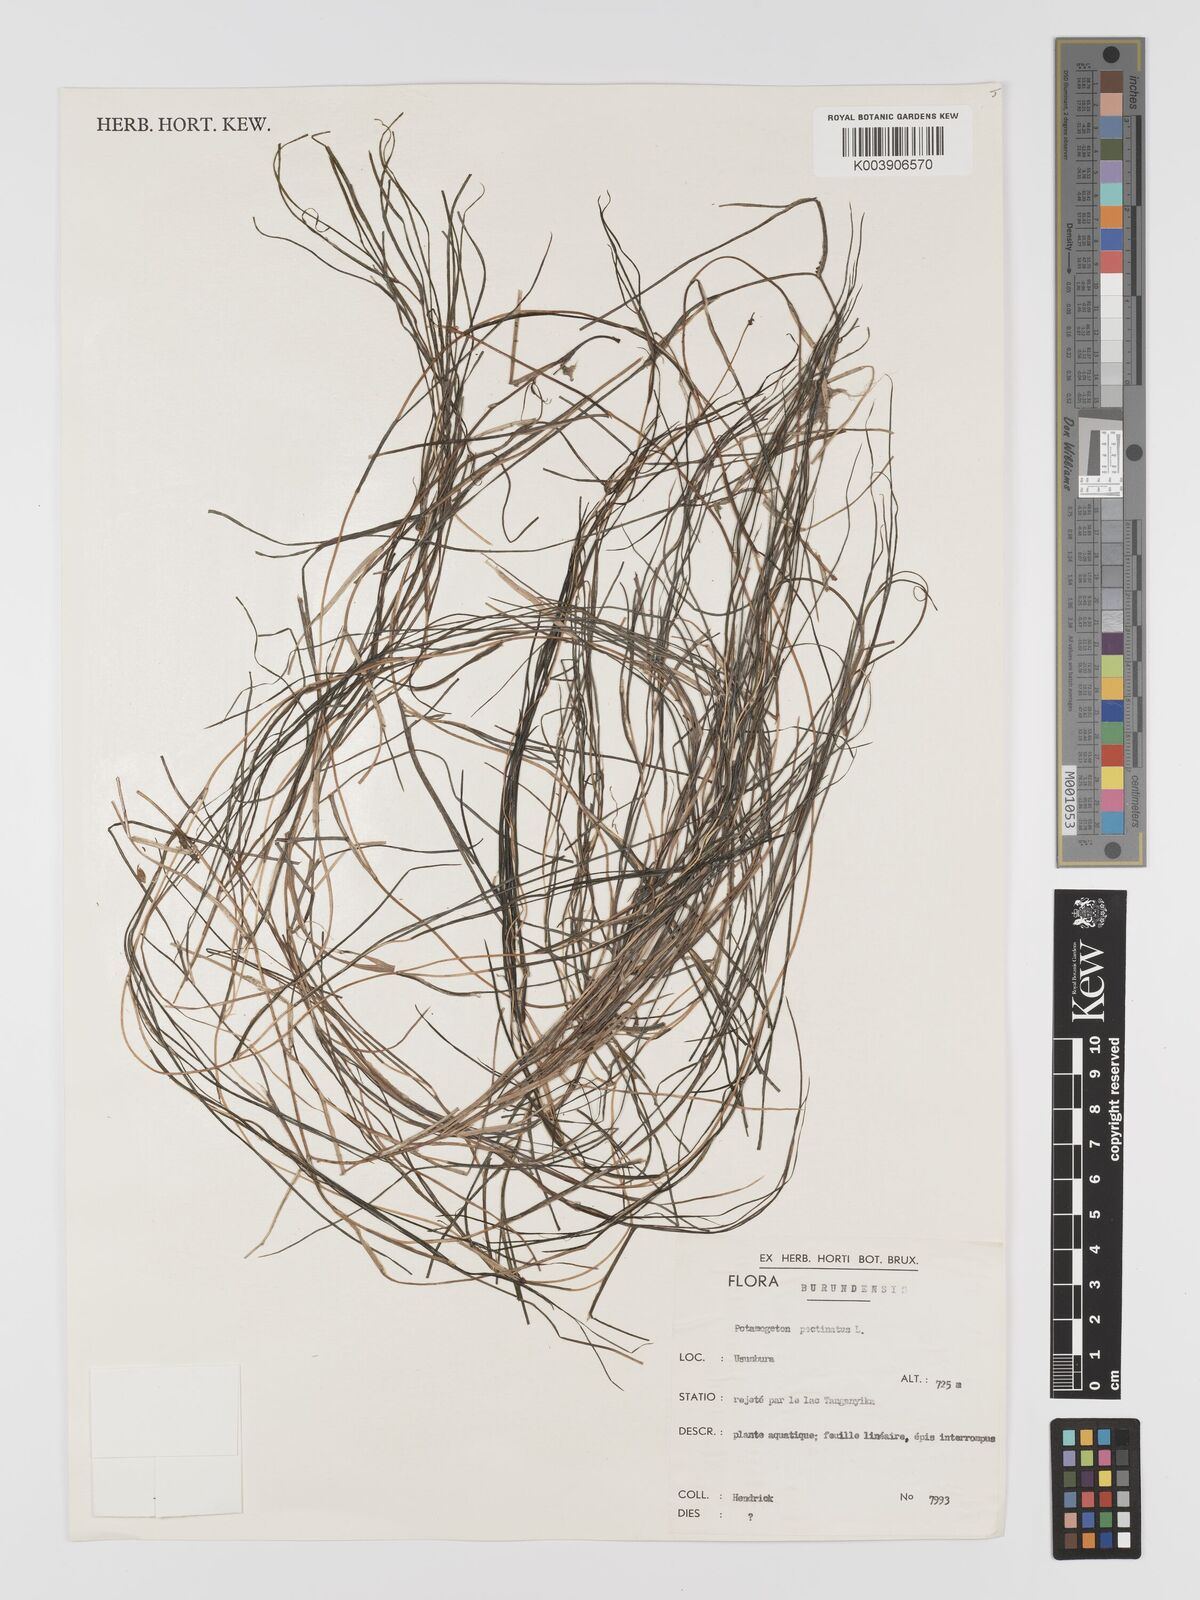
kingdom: Plantae
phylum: Tracheophyta
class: Liliopsida
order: Alismatales
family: Potamogetonaceae
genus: Stuckenia
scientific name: Stuckenia pectinata
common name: Sago pondweed
